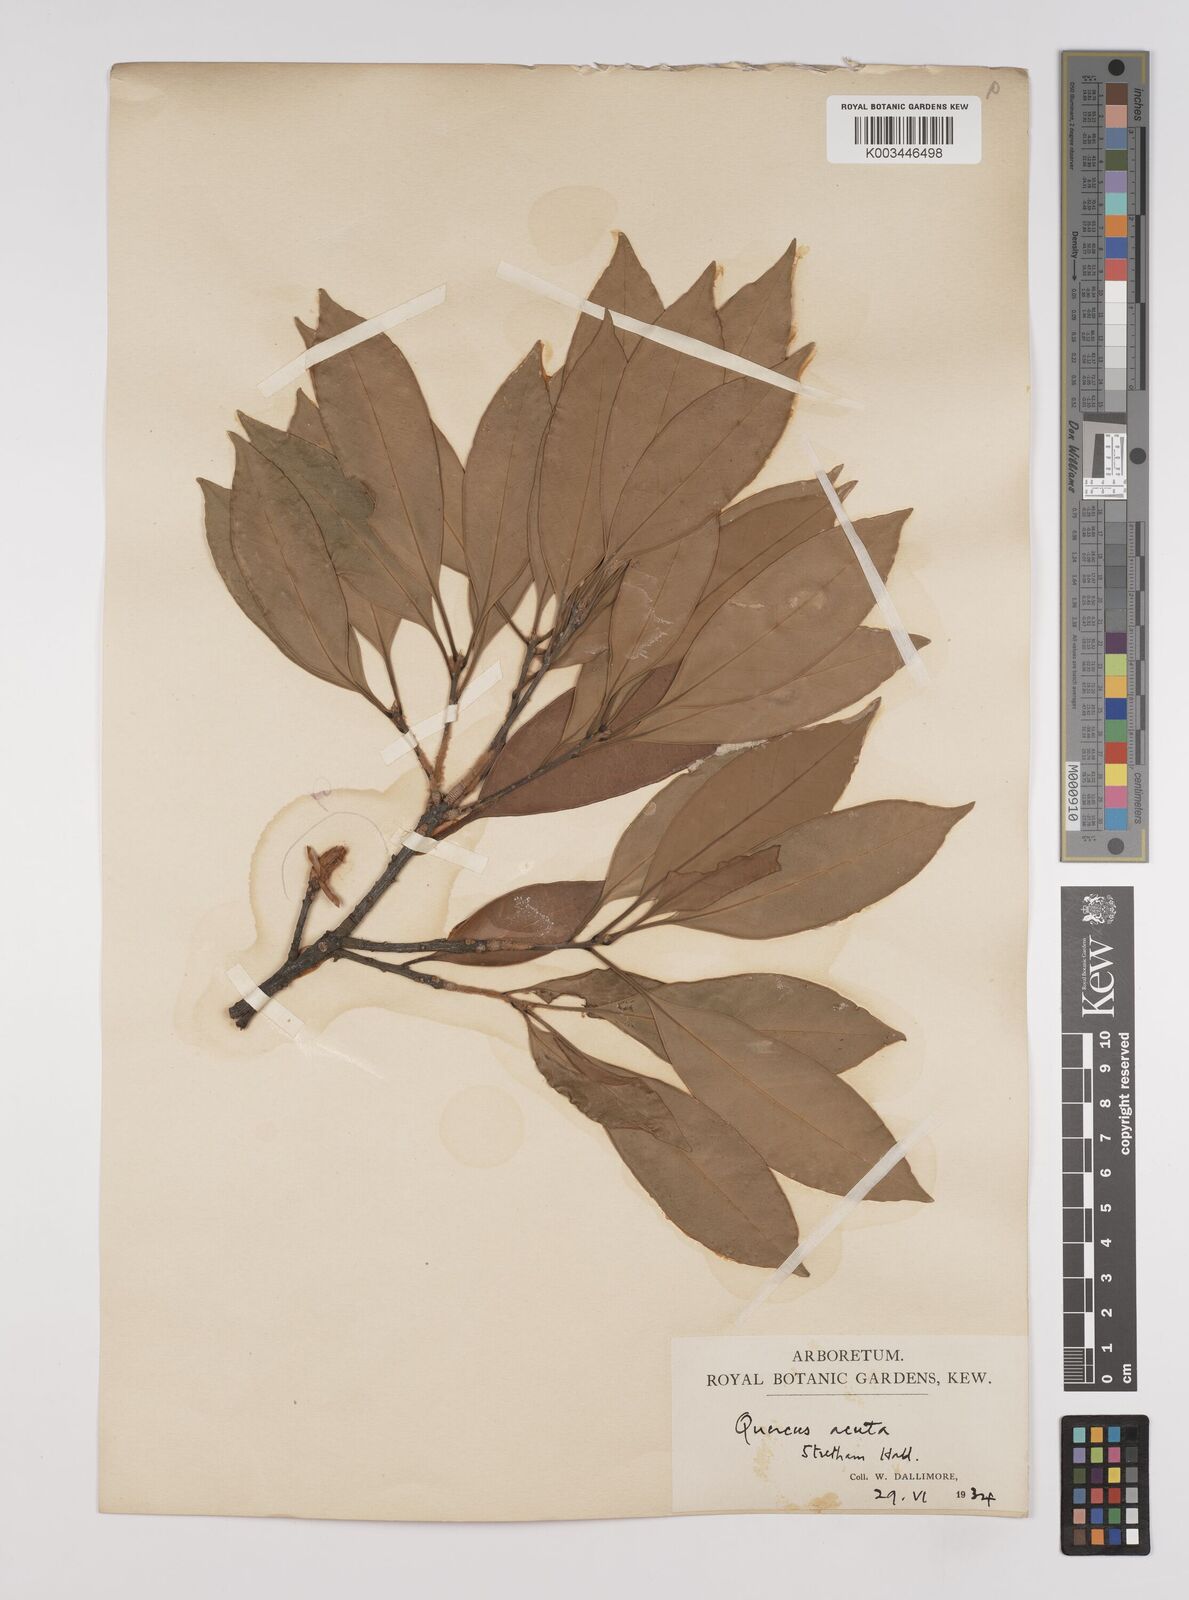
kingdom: Plantae
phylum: Tracheophyta
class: Magnoliopsida
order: Fagales
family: Fagaceae
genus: Quercus
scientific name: Quercus
